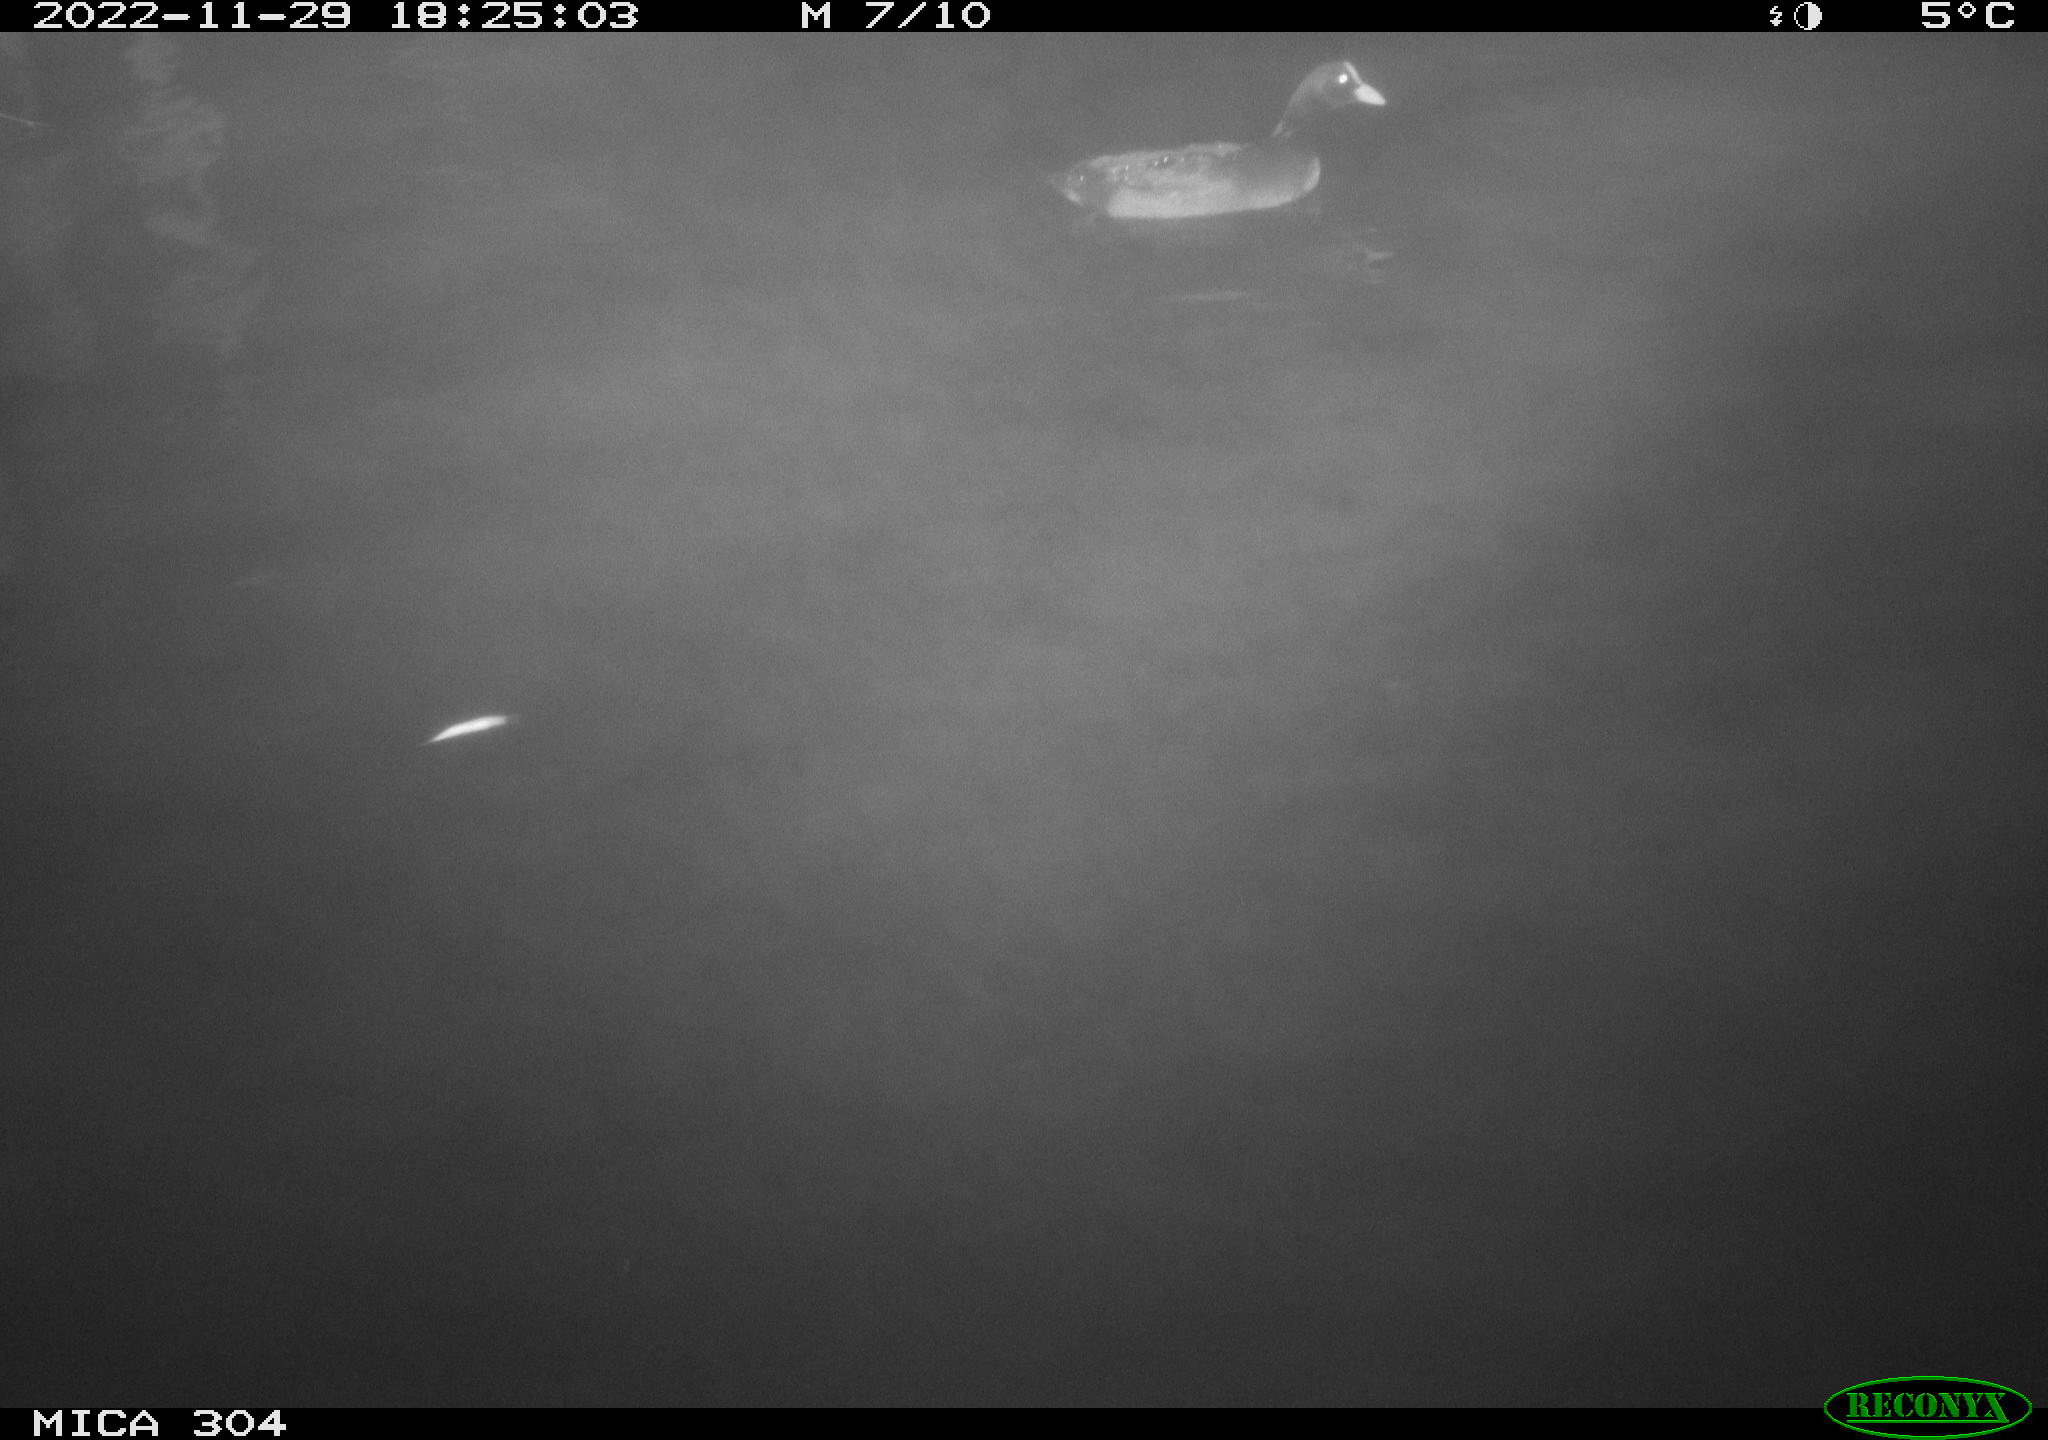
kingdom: Animalia
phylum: Chordata
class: Aves
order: Anseriformes
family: Anatidae
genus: Anas
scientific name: Anas
